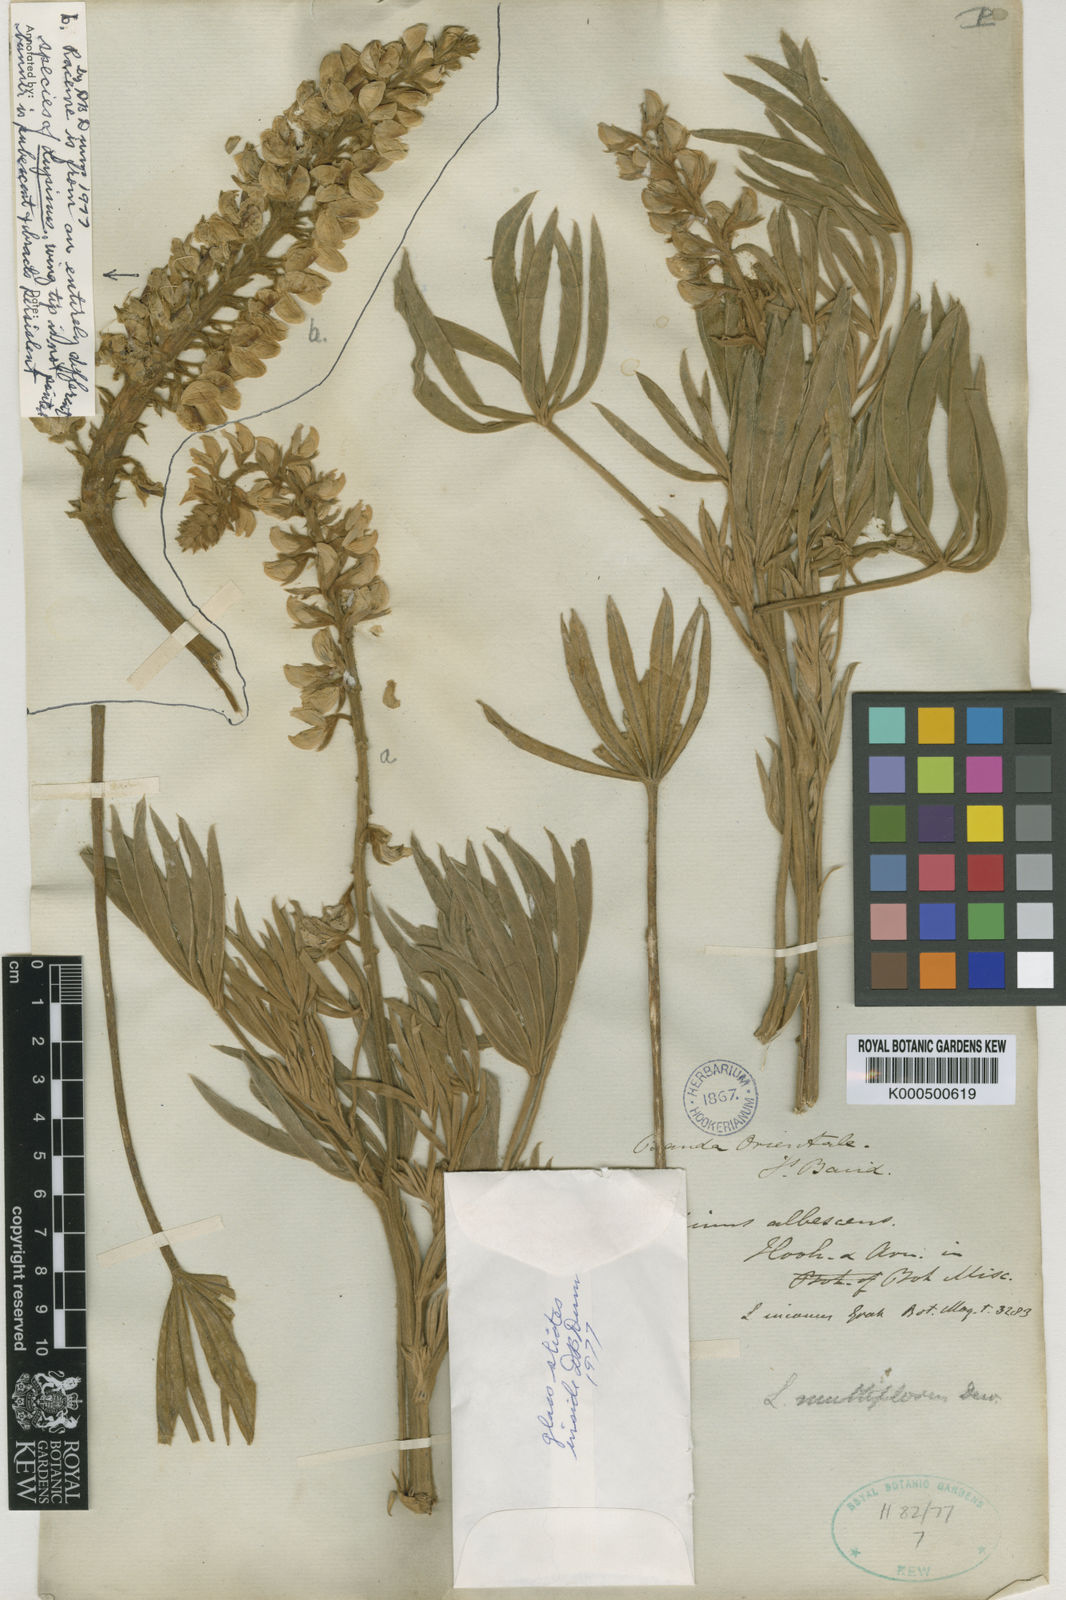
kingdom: Plantae
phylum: Tracheophyta
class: Magnoliopsida
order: Fabales
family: Fabaceae
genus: Lupinus
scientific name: Lupinus multiflorus
